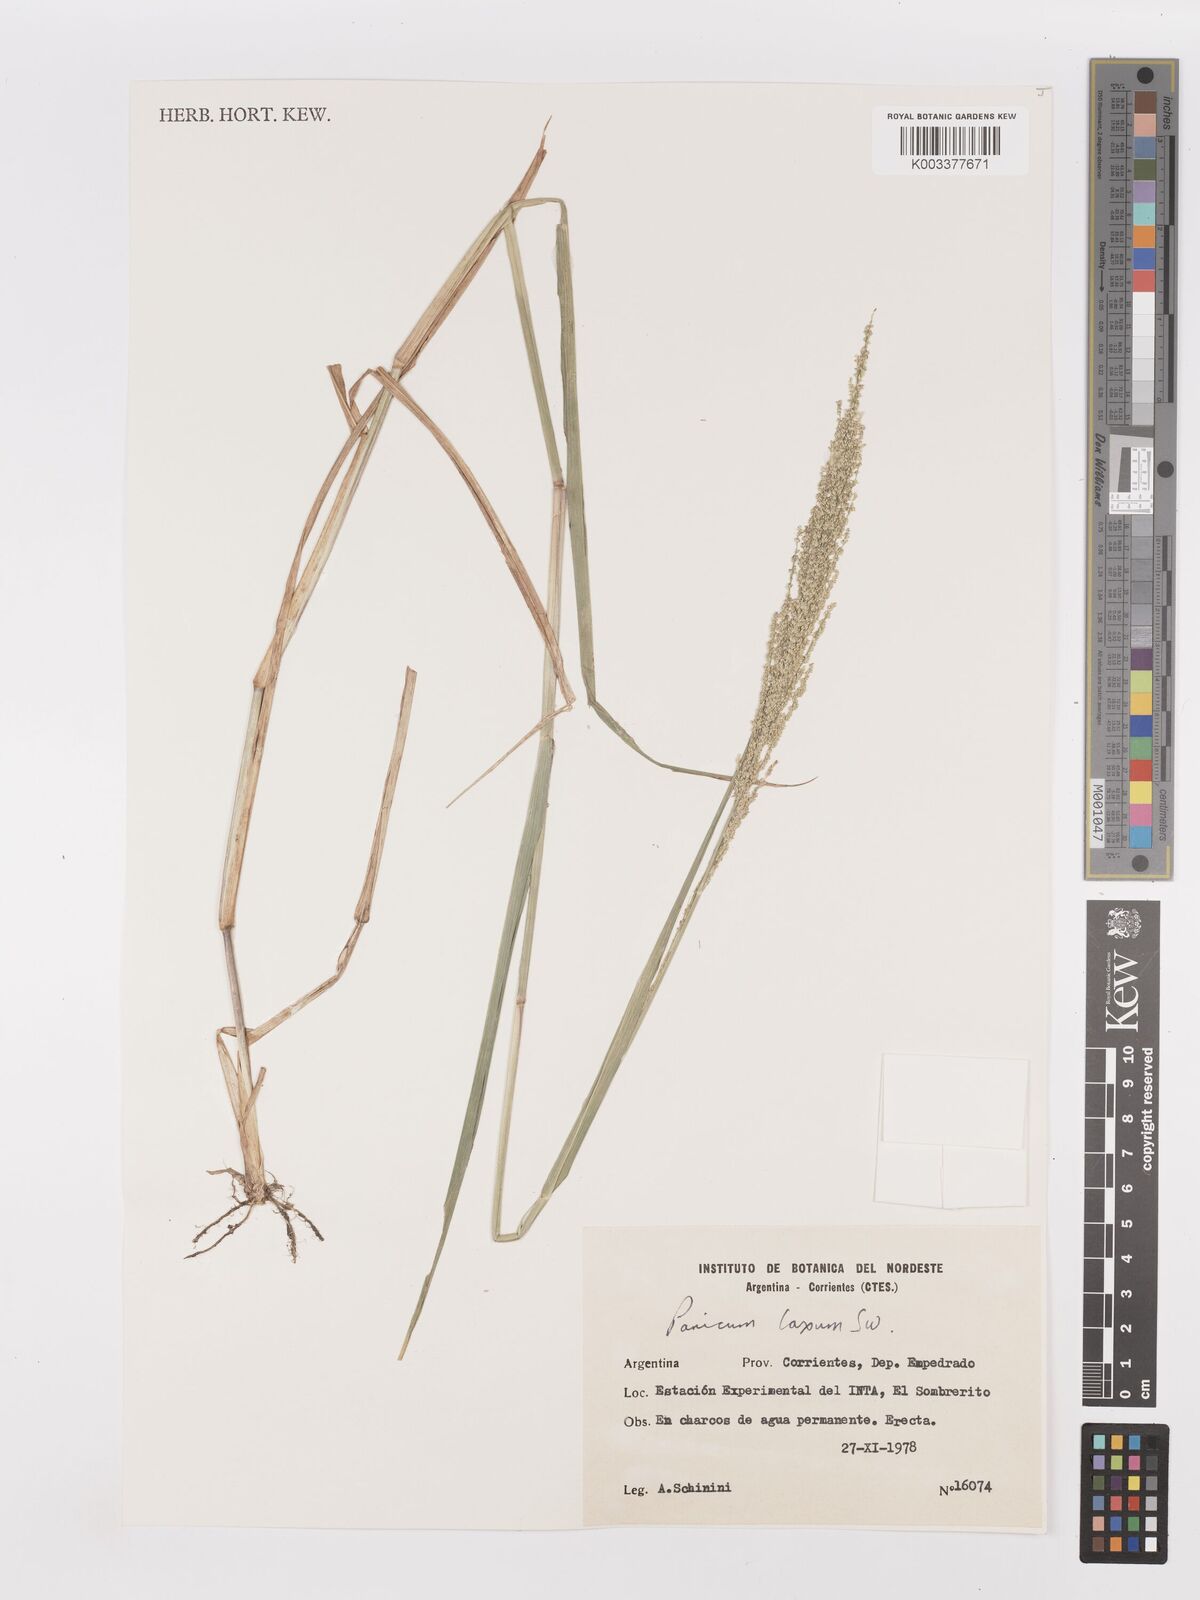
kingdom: Plantae
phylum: Tracheophyta
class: Liliopsida
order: Poales
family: Poaceae
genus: Steinchisma
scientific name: Steinchisma laxum
